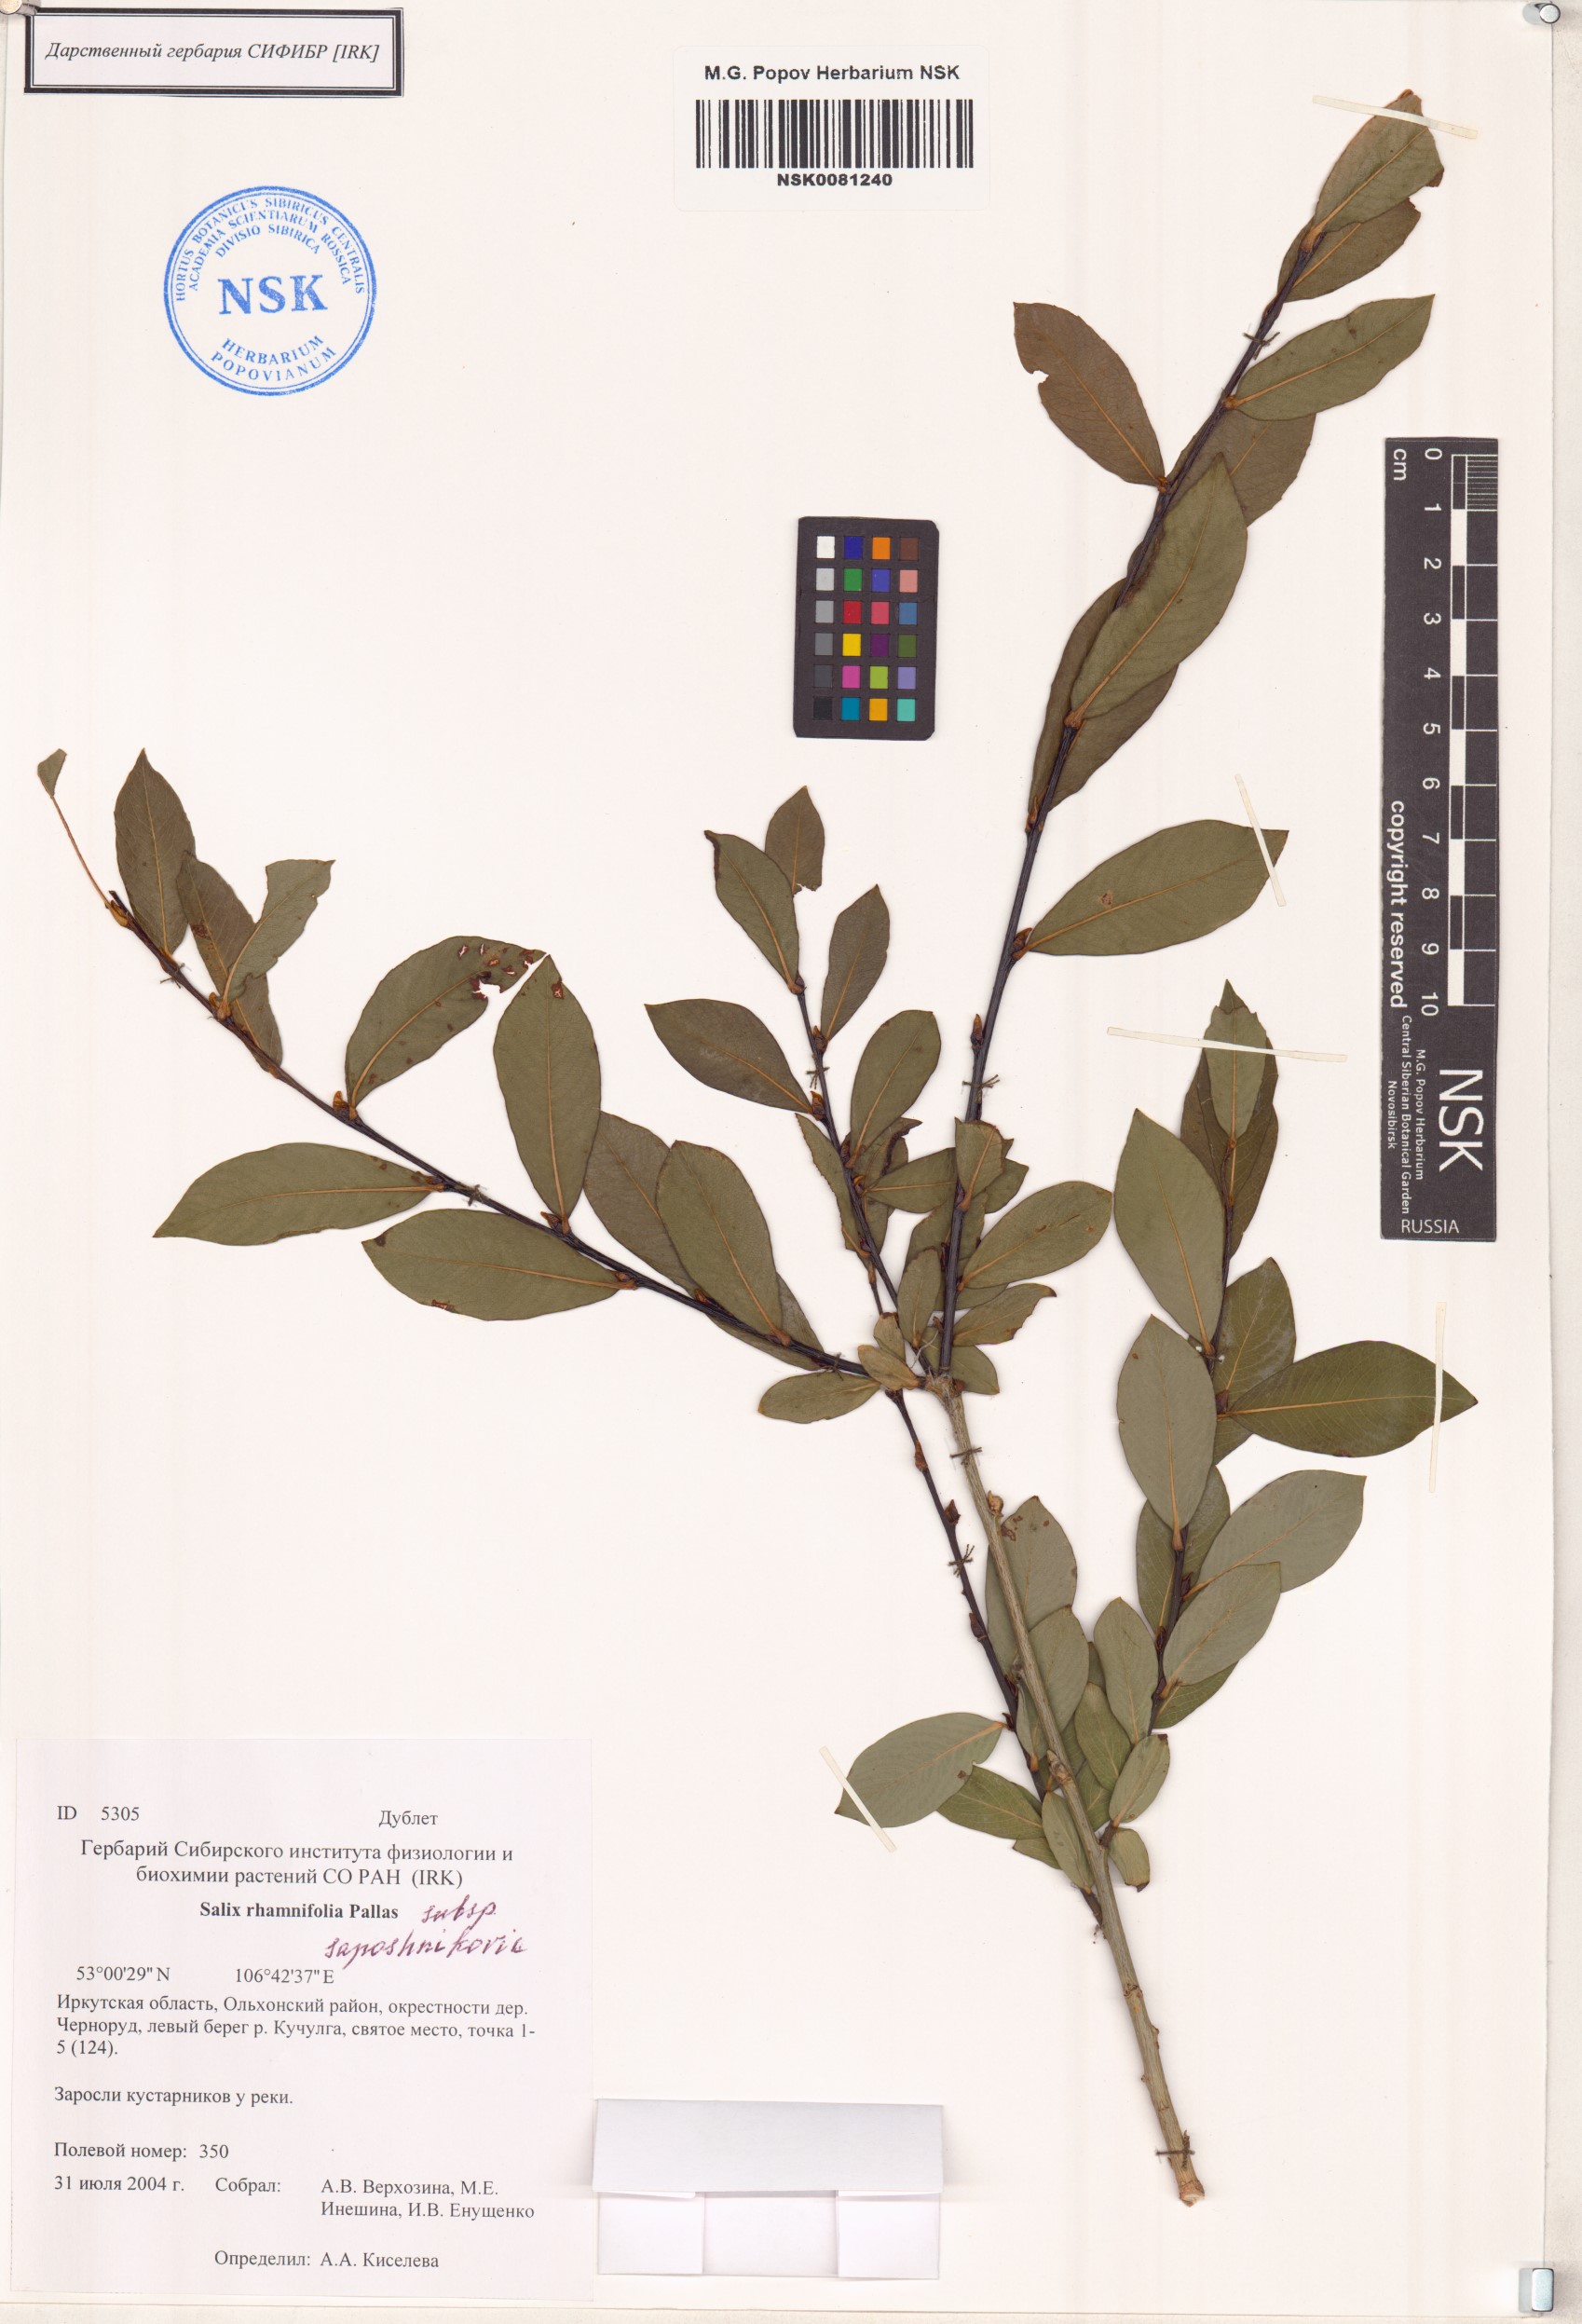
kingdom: Plantae
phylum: Tracheophyta
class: Magnoliopsida
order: Malpighiales
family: Salicaceae
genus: Salix
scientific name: Salix saposhnikovii
